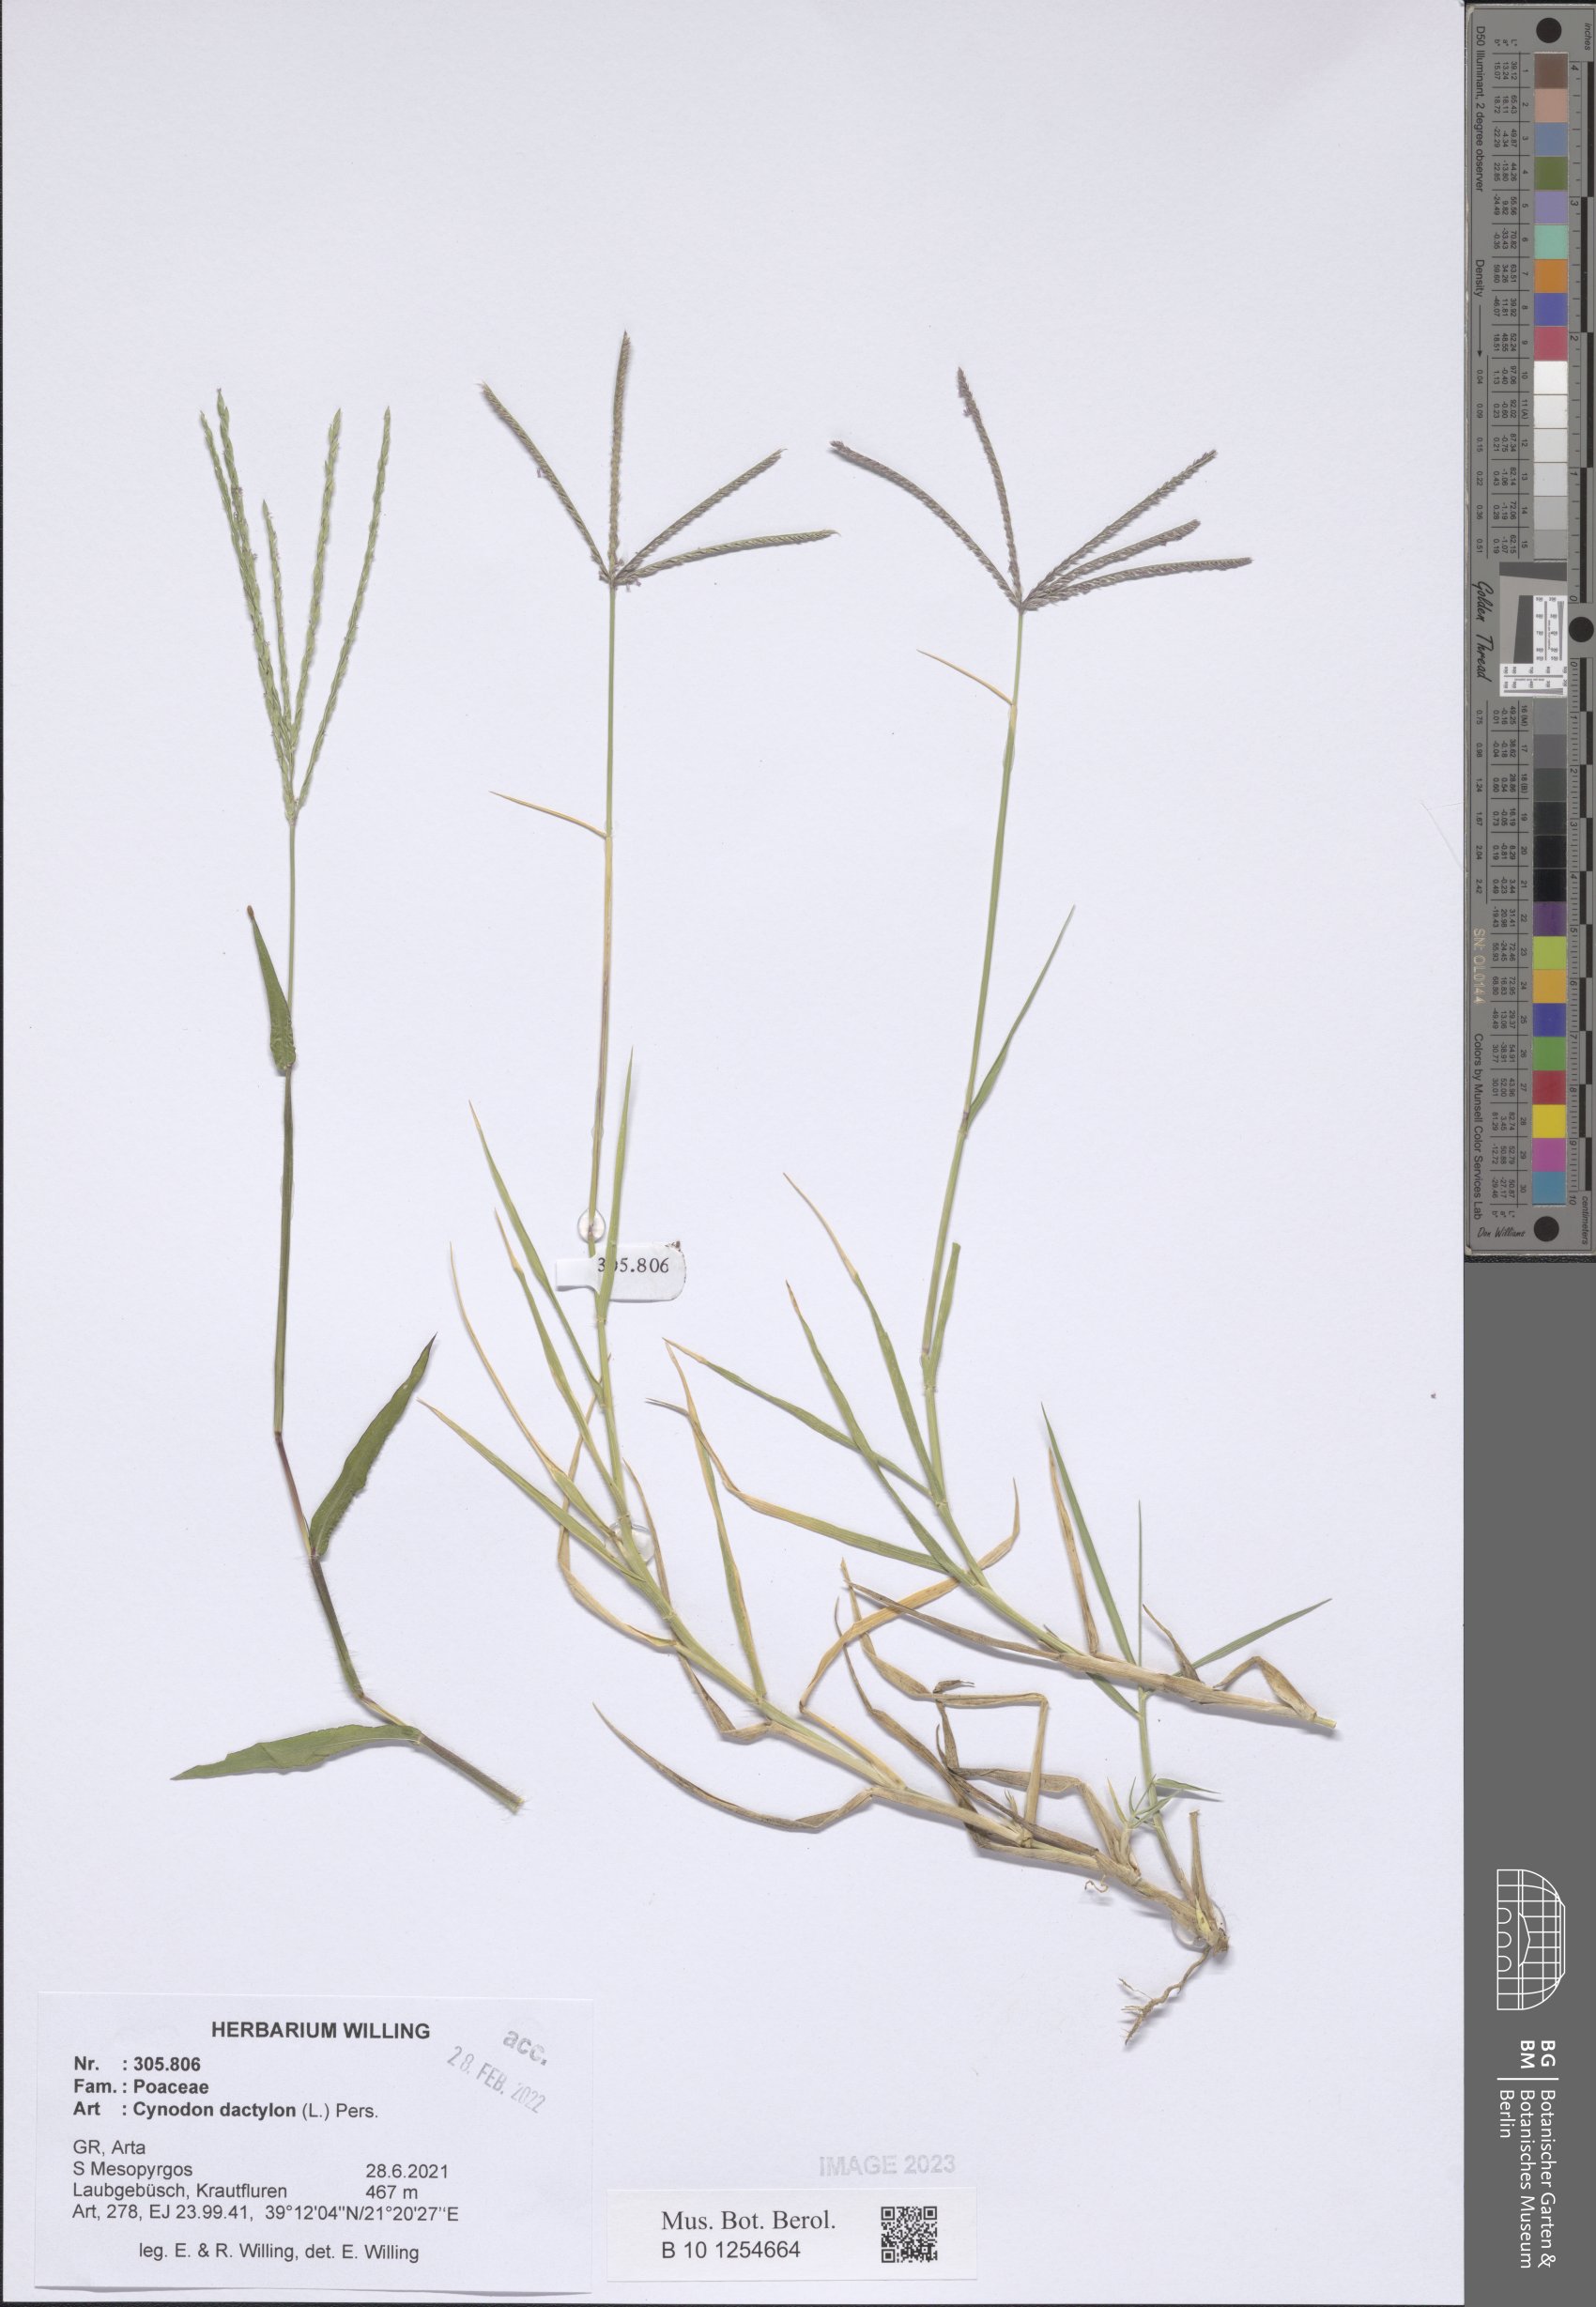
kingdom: Plantae
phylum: Tracheophyta
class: Liliopsida
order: Poales
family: Poaceae
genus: Cynodon
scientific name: Cynodon dactylon
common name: Bermuda grass
